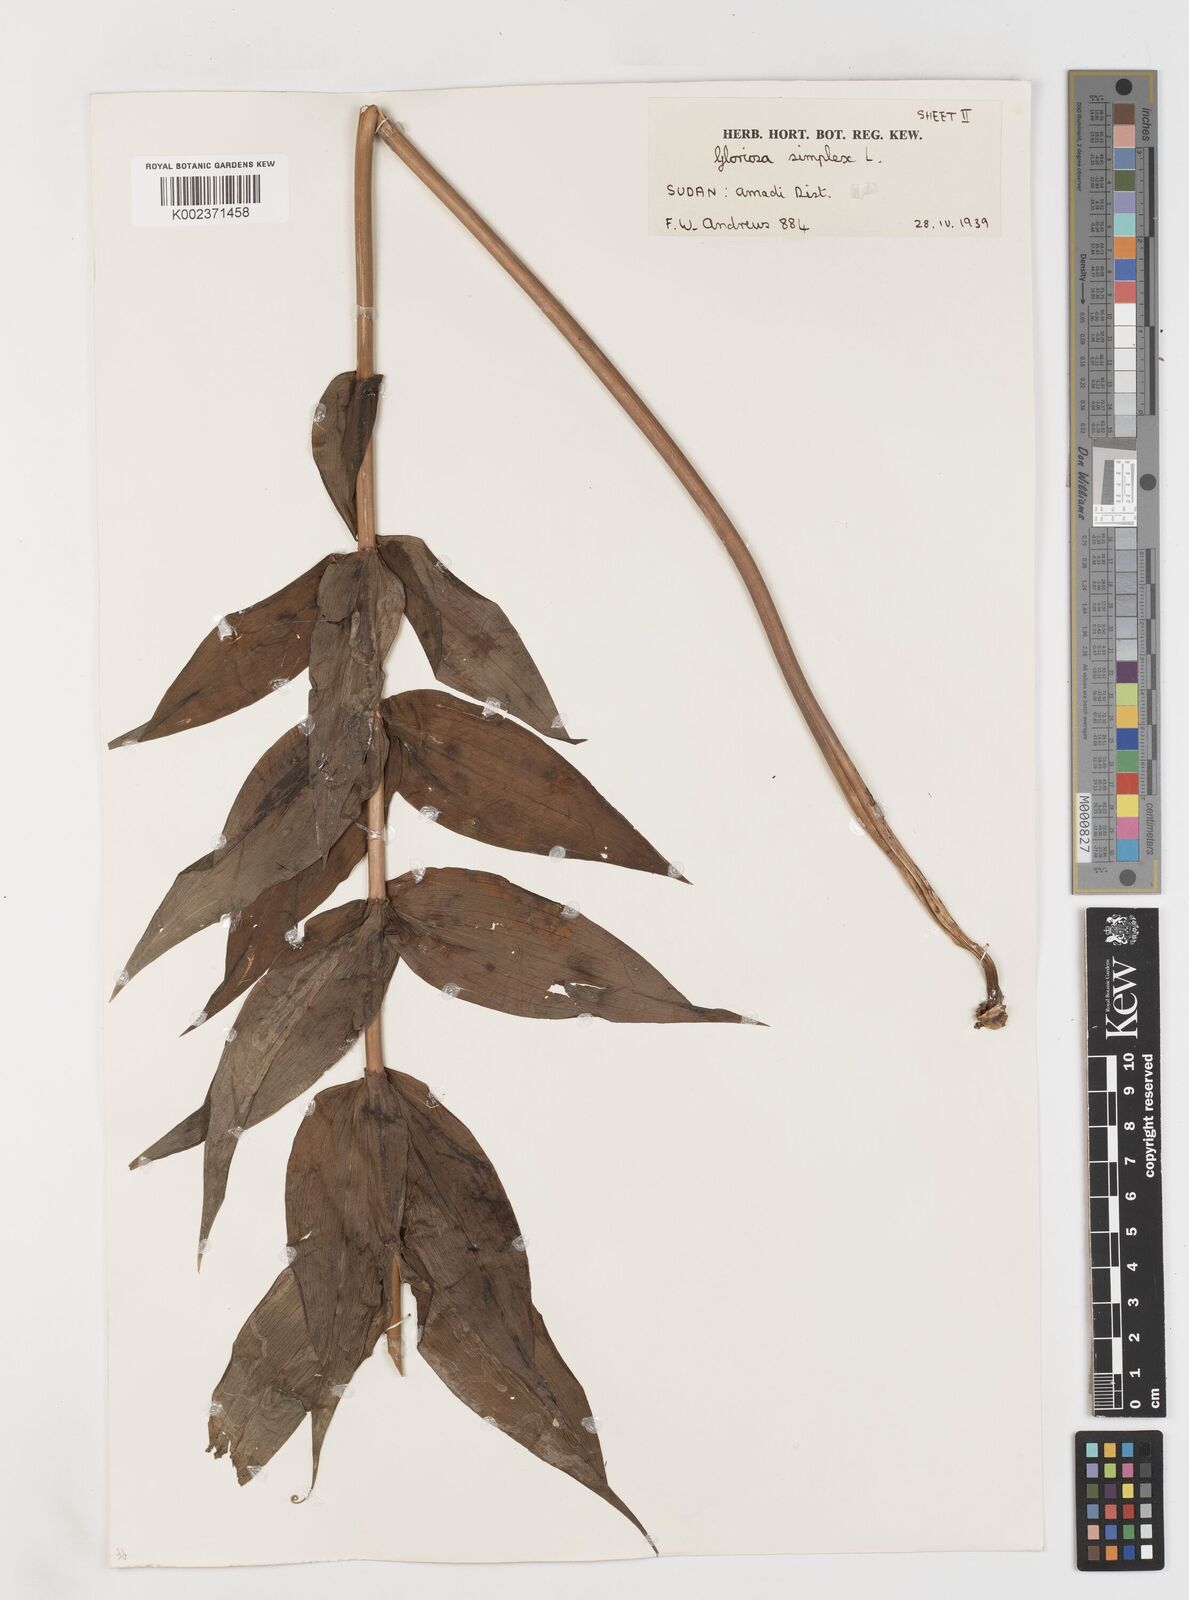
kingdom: Plantae
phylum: Tracheophyta
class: Liliopsida
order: Liliales
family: Colchicaceae
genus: Gloriosa
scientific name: Gloriosa superba
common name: Flame lily
